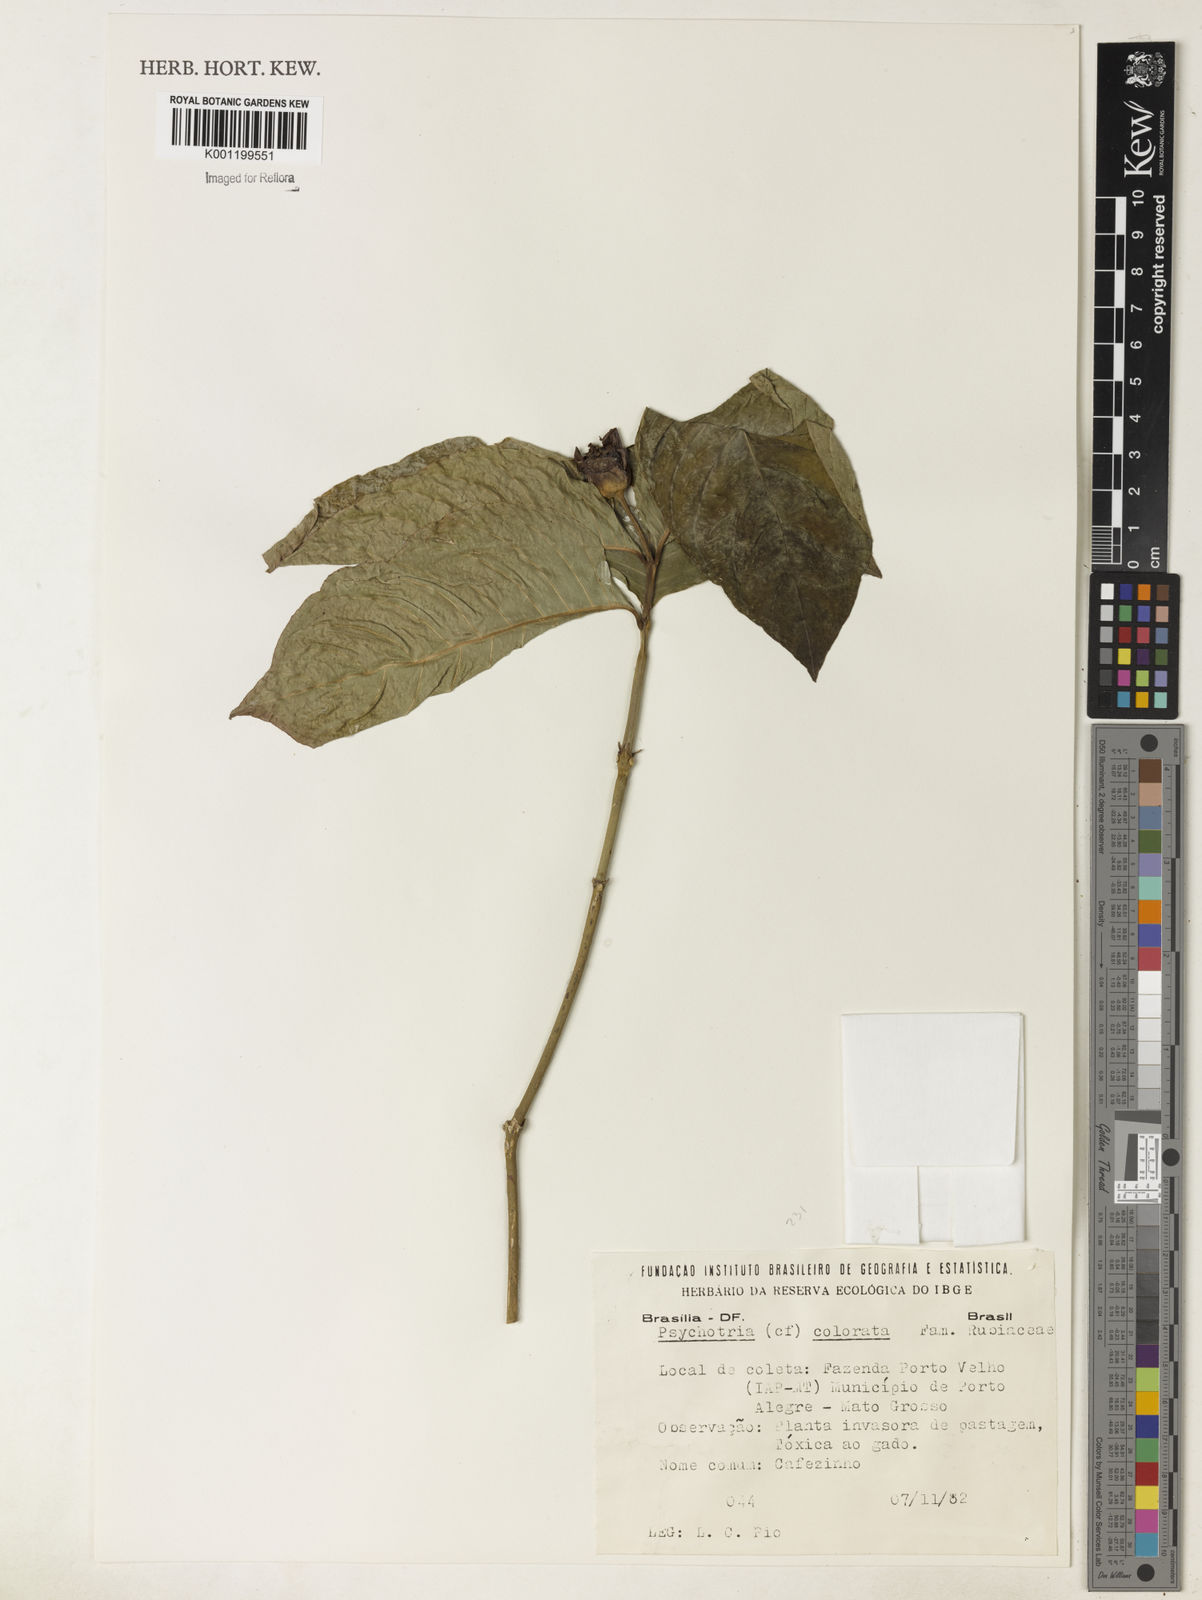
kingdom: Plantae
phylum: Tracheophyta
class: Magnoliopsida
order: Gentianales
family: Rubiaceae
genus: Psychotria
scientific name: Psychotria
